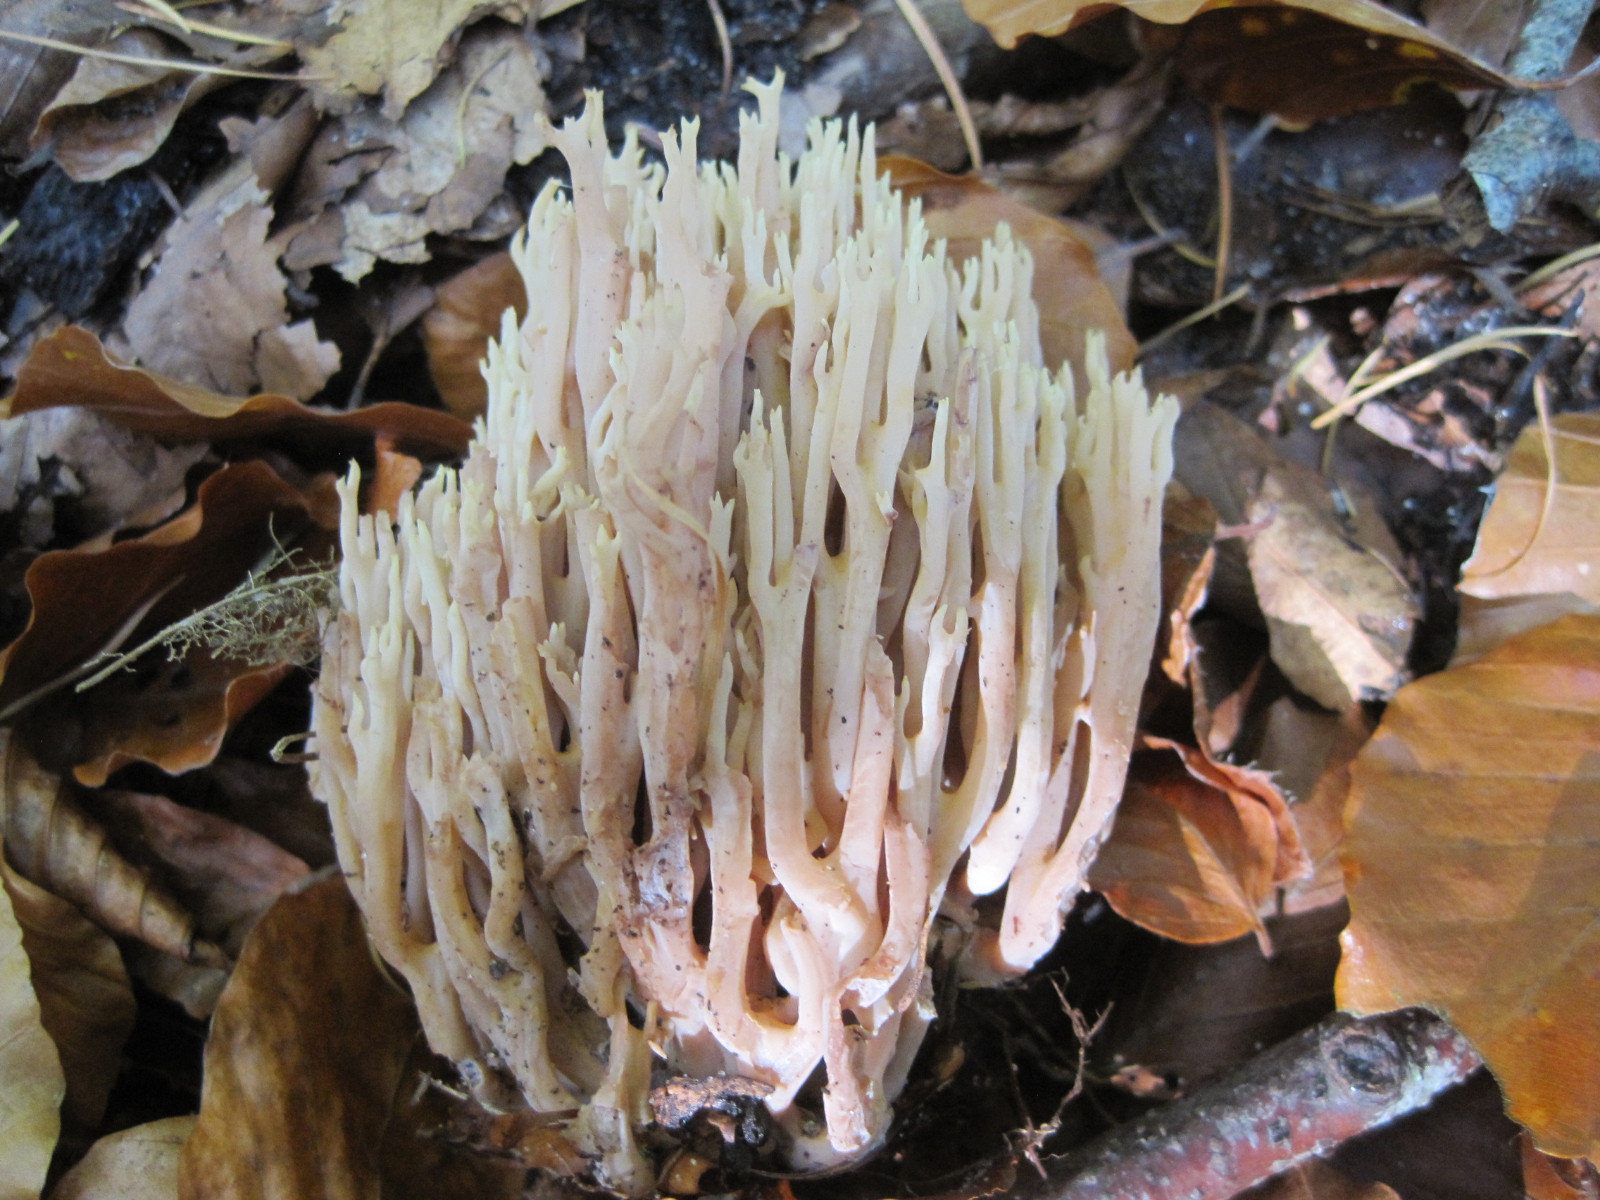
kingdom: Fungi
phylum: Basidiomycota
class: Agaricomycetes
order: Gomphales
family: Gomphaceae
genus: Ramaria
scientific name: Ramaria stricta
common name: rank koralsvamp
